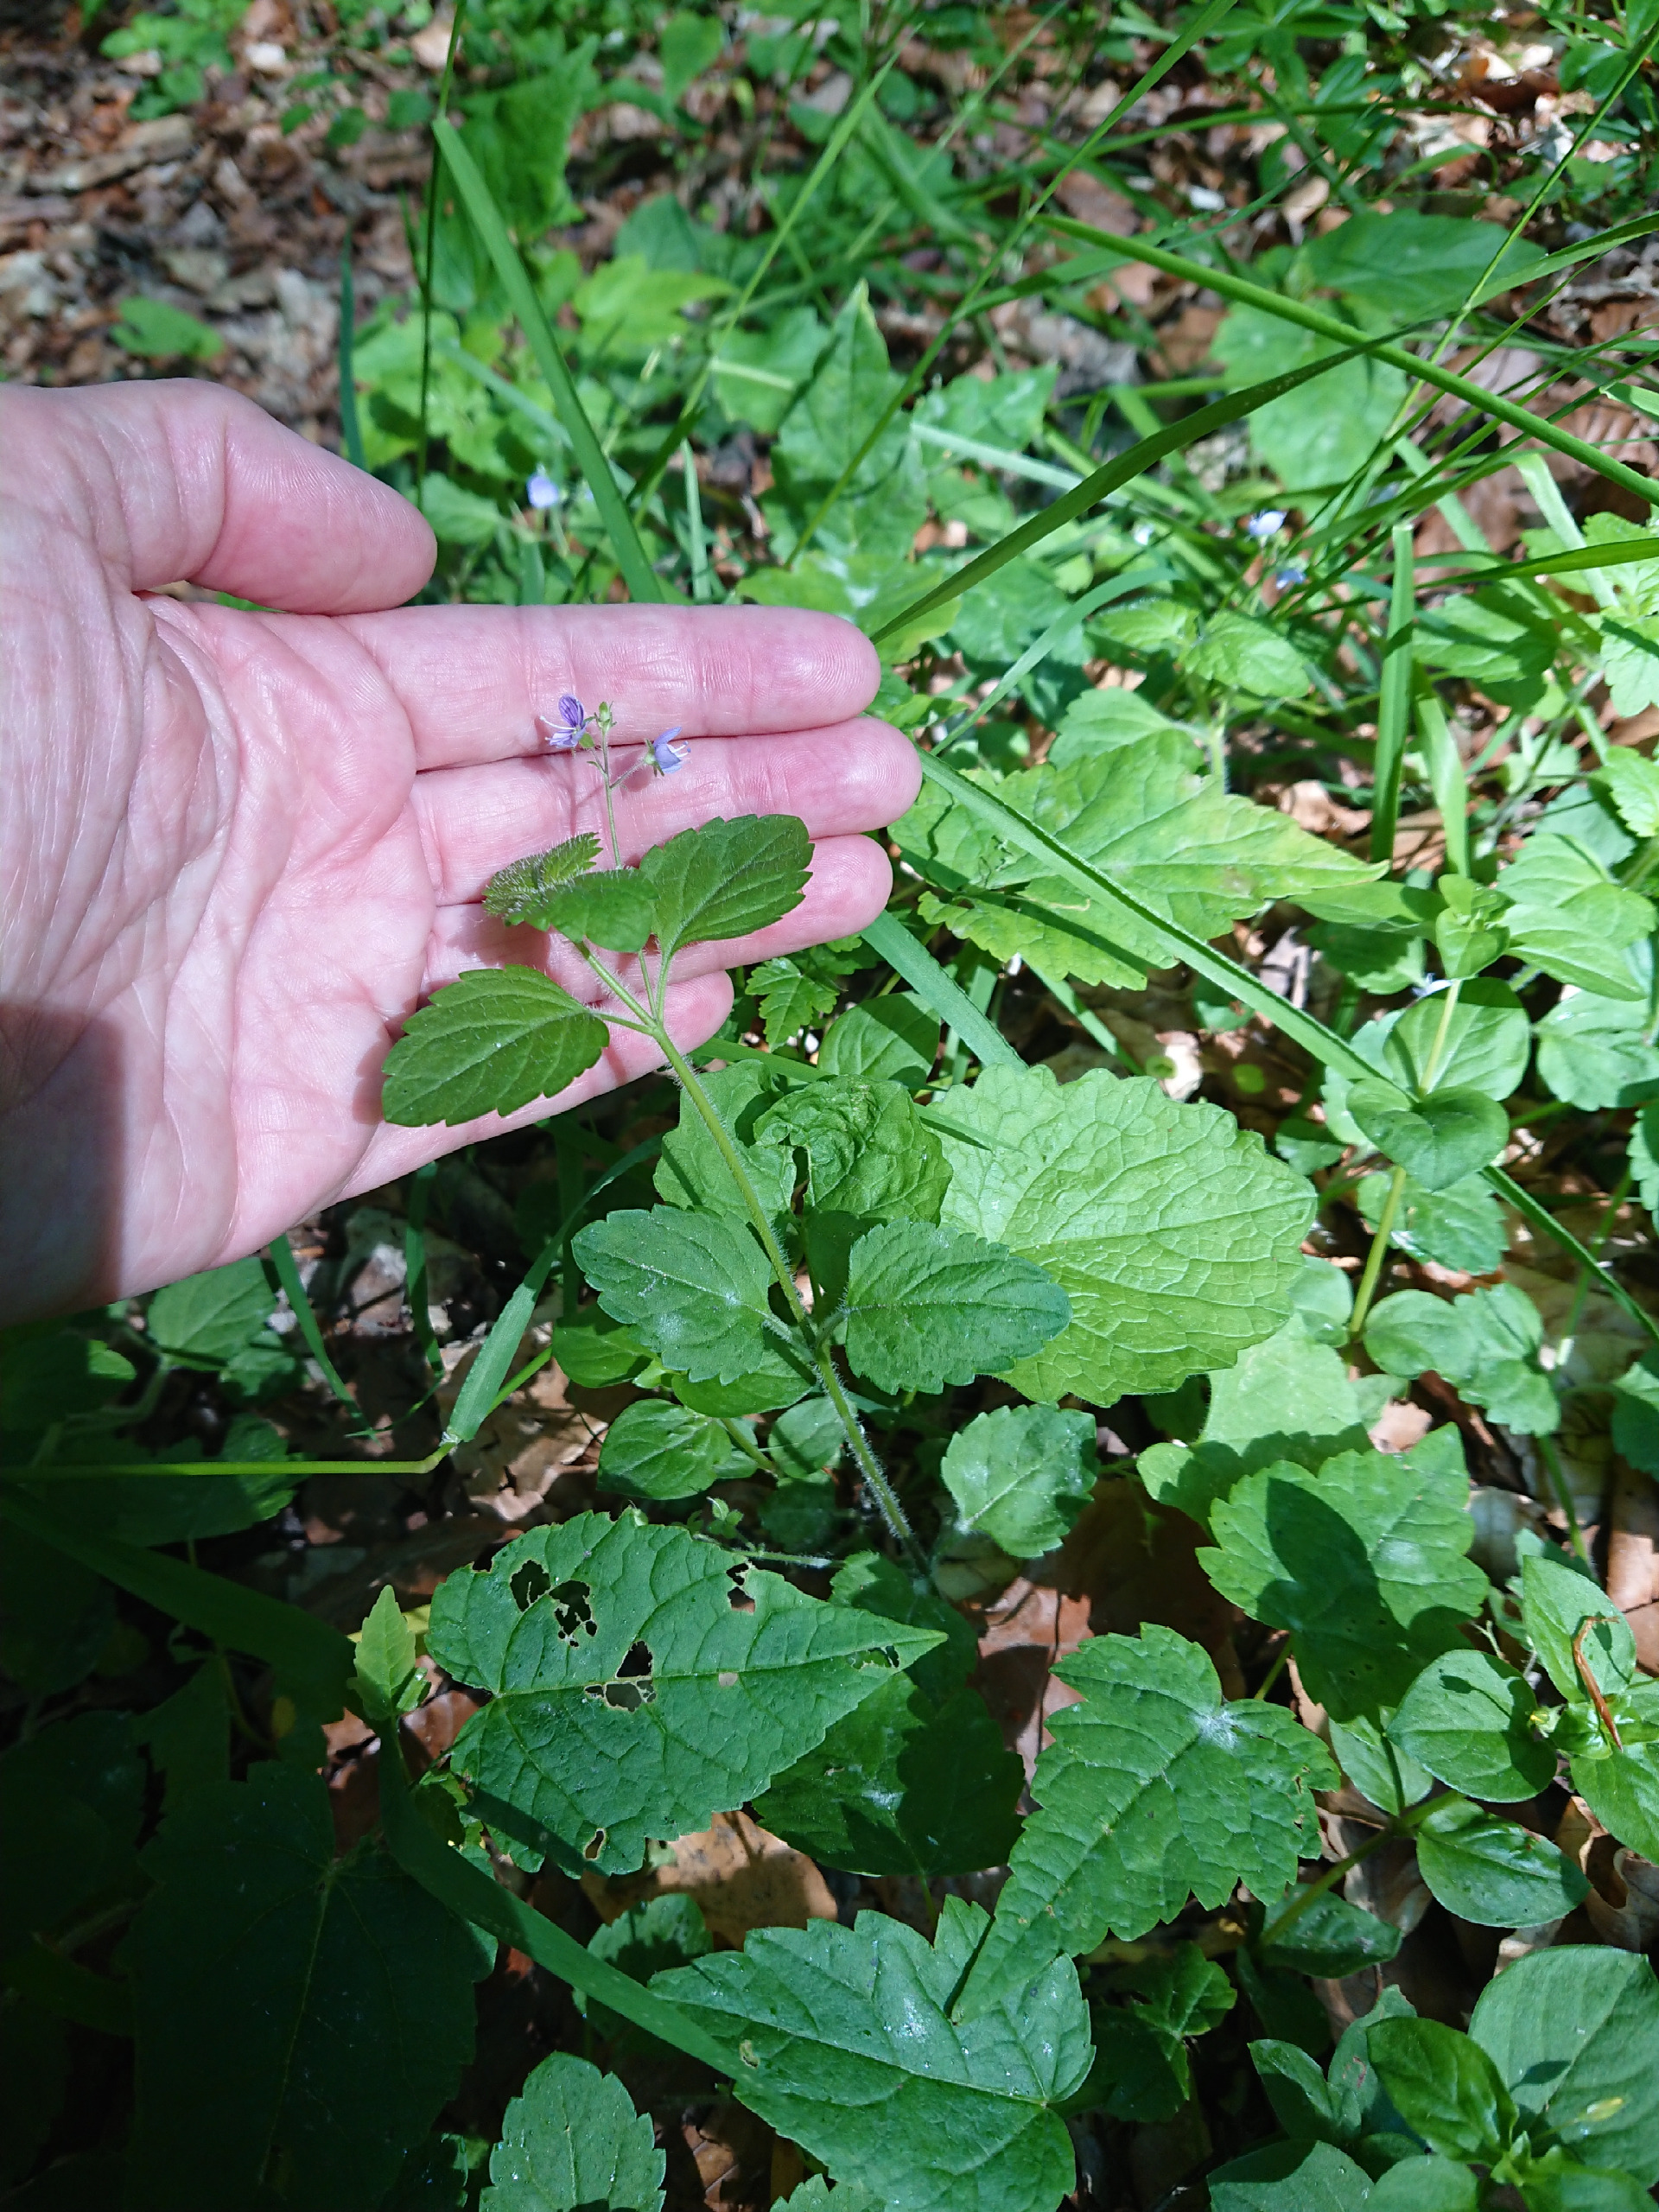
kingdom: Plantae
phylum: Tracheophyta
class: Magnoliopsida
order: Lamiales
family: Plantaginaceae
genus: Veronica
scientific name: Veronica montana
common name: Bjerg-ærenpris
